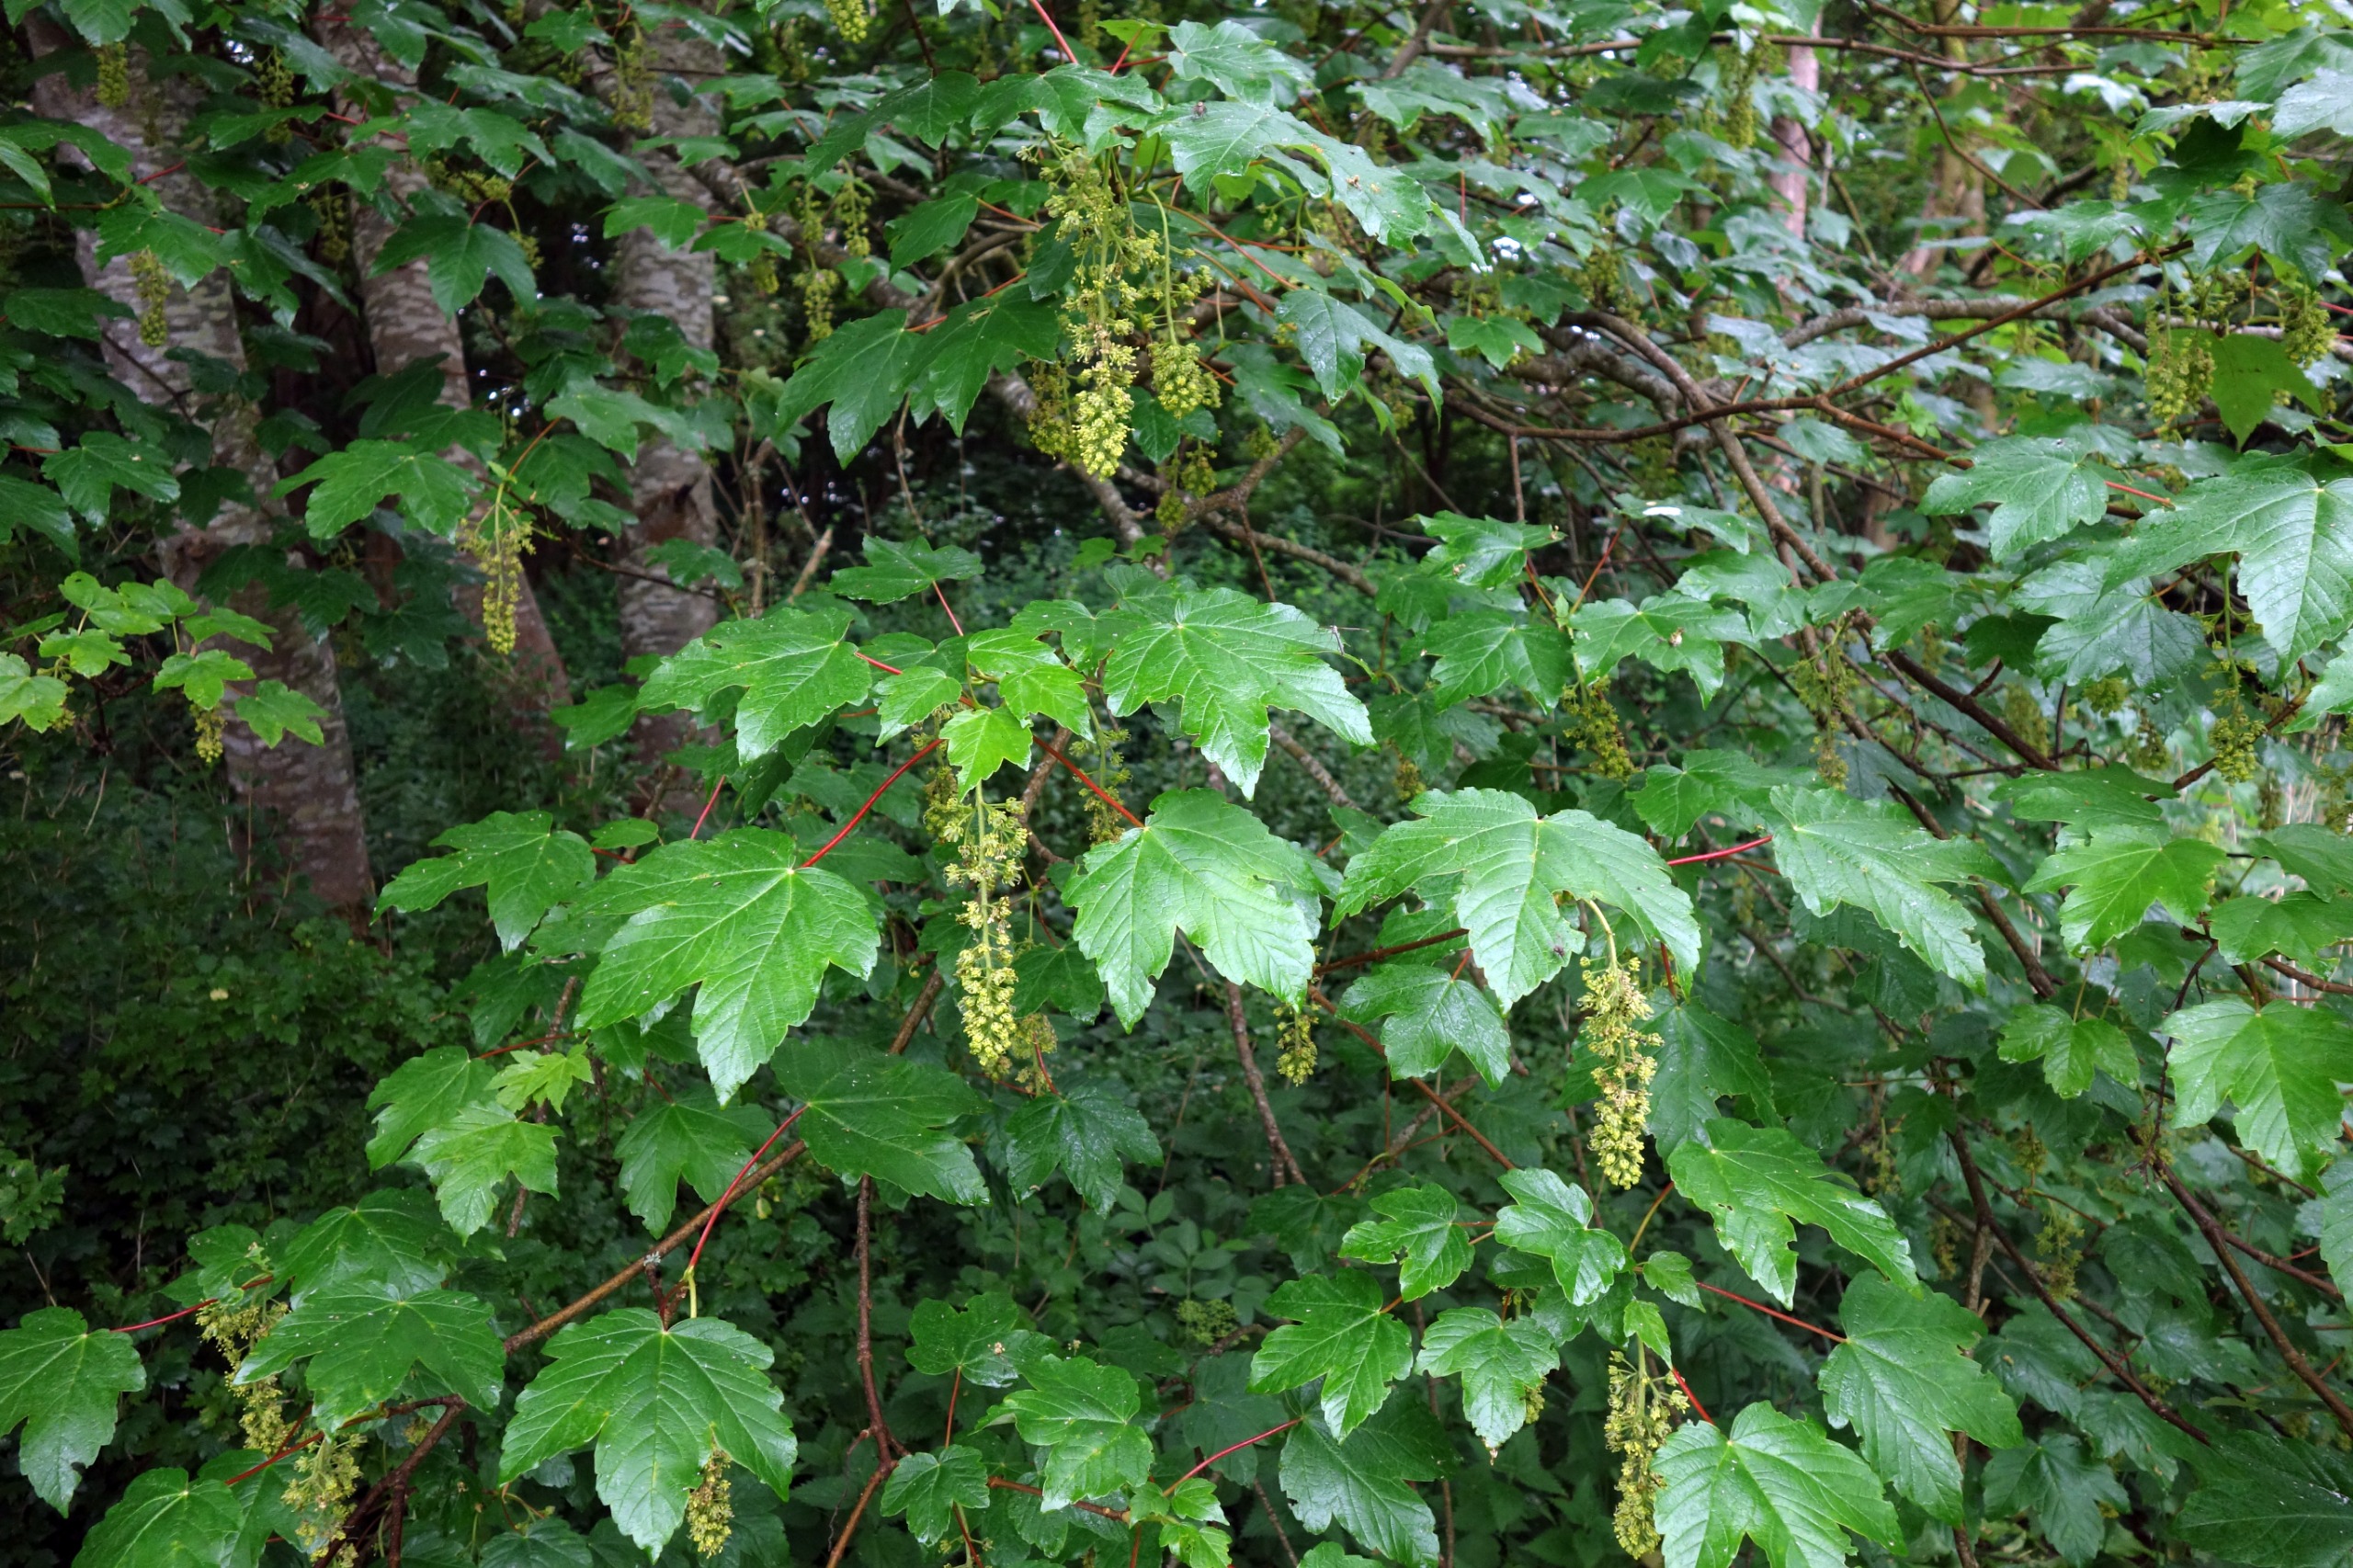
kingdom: Plantae
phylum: Tracheophyta
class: Magnoliopsida
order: Sapindales
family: Sapindaceae
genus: Acer
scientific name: Acer pseudoplatanus
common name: Ahorn
